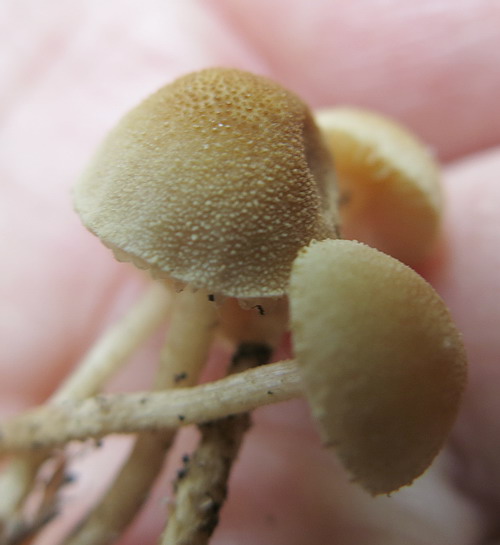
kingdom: Fungi
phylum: Basidiomycota
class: Agaricomycetes
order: Agaricales
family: Tubariaceae
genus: Flammulaster
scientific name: Flammulaster carpophilus
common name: bøge-grynskælhat
